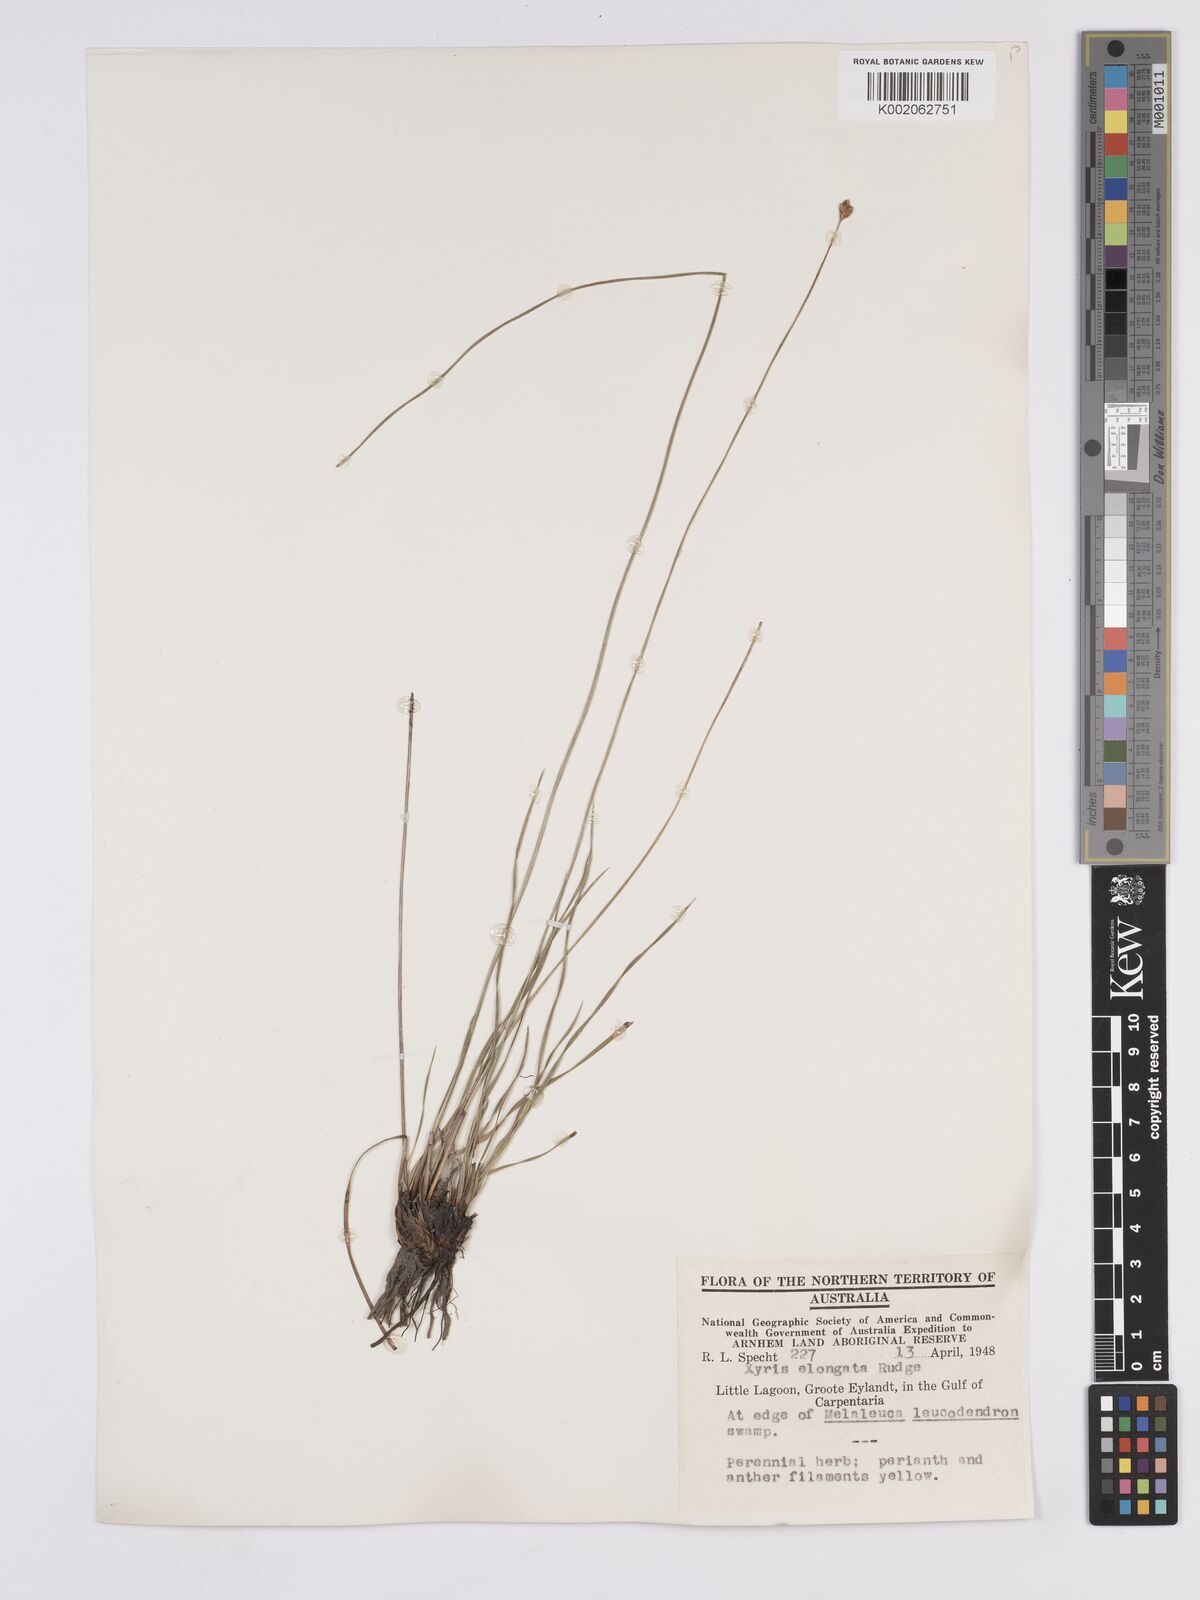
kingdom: Plantae
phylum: Tracheophyta
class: Liliopsida
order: Poales
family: Xyridaceae
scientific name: Xyridaceae
